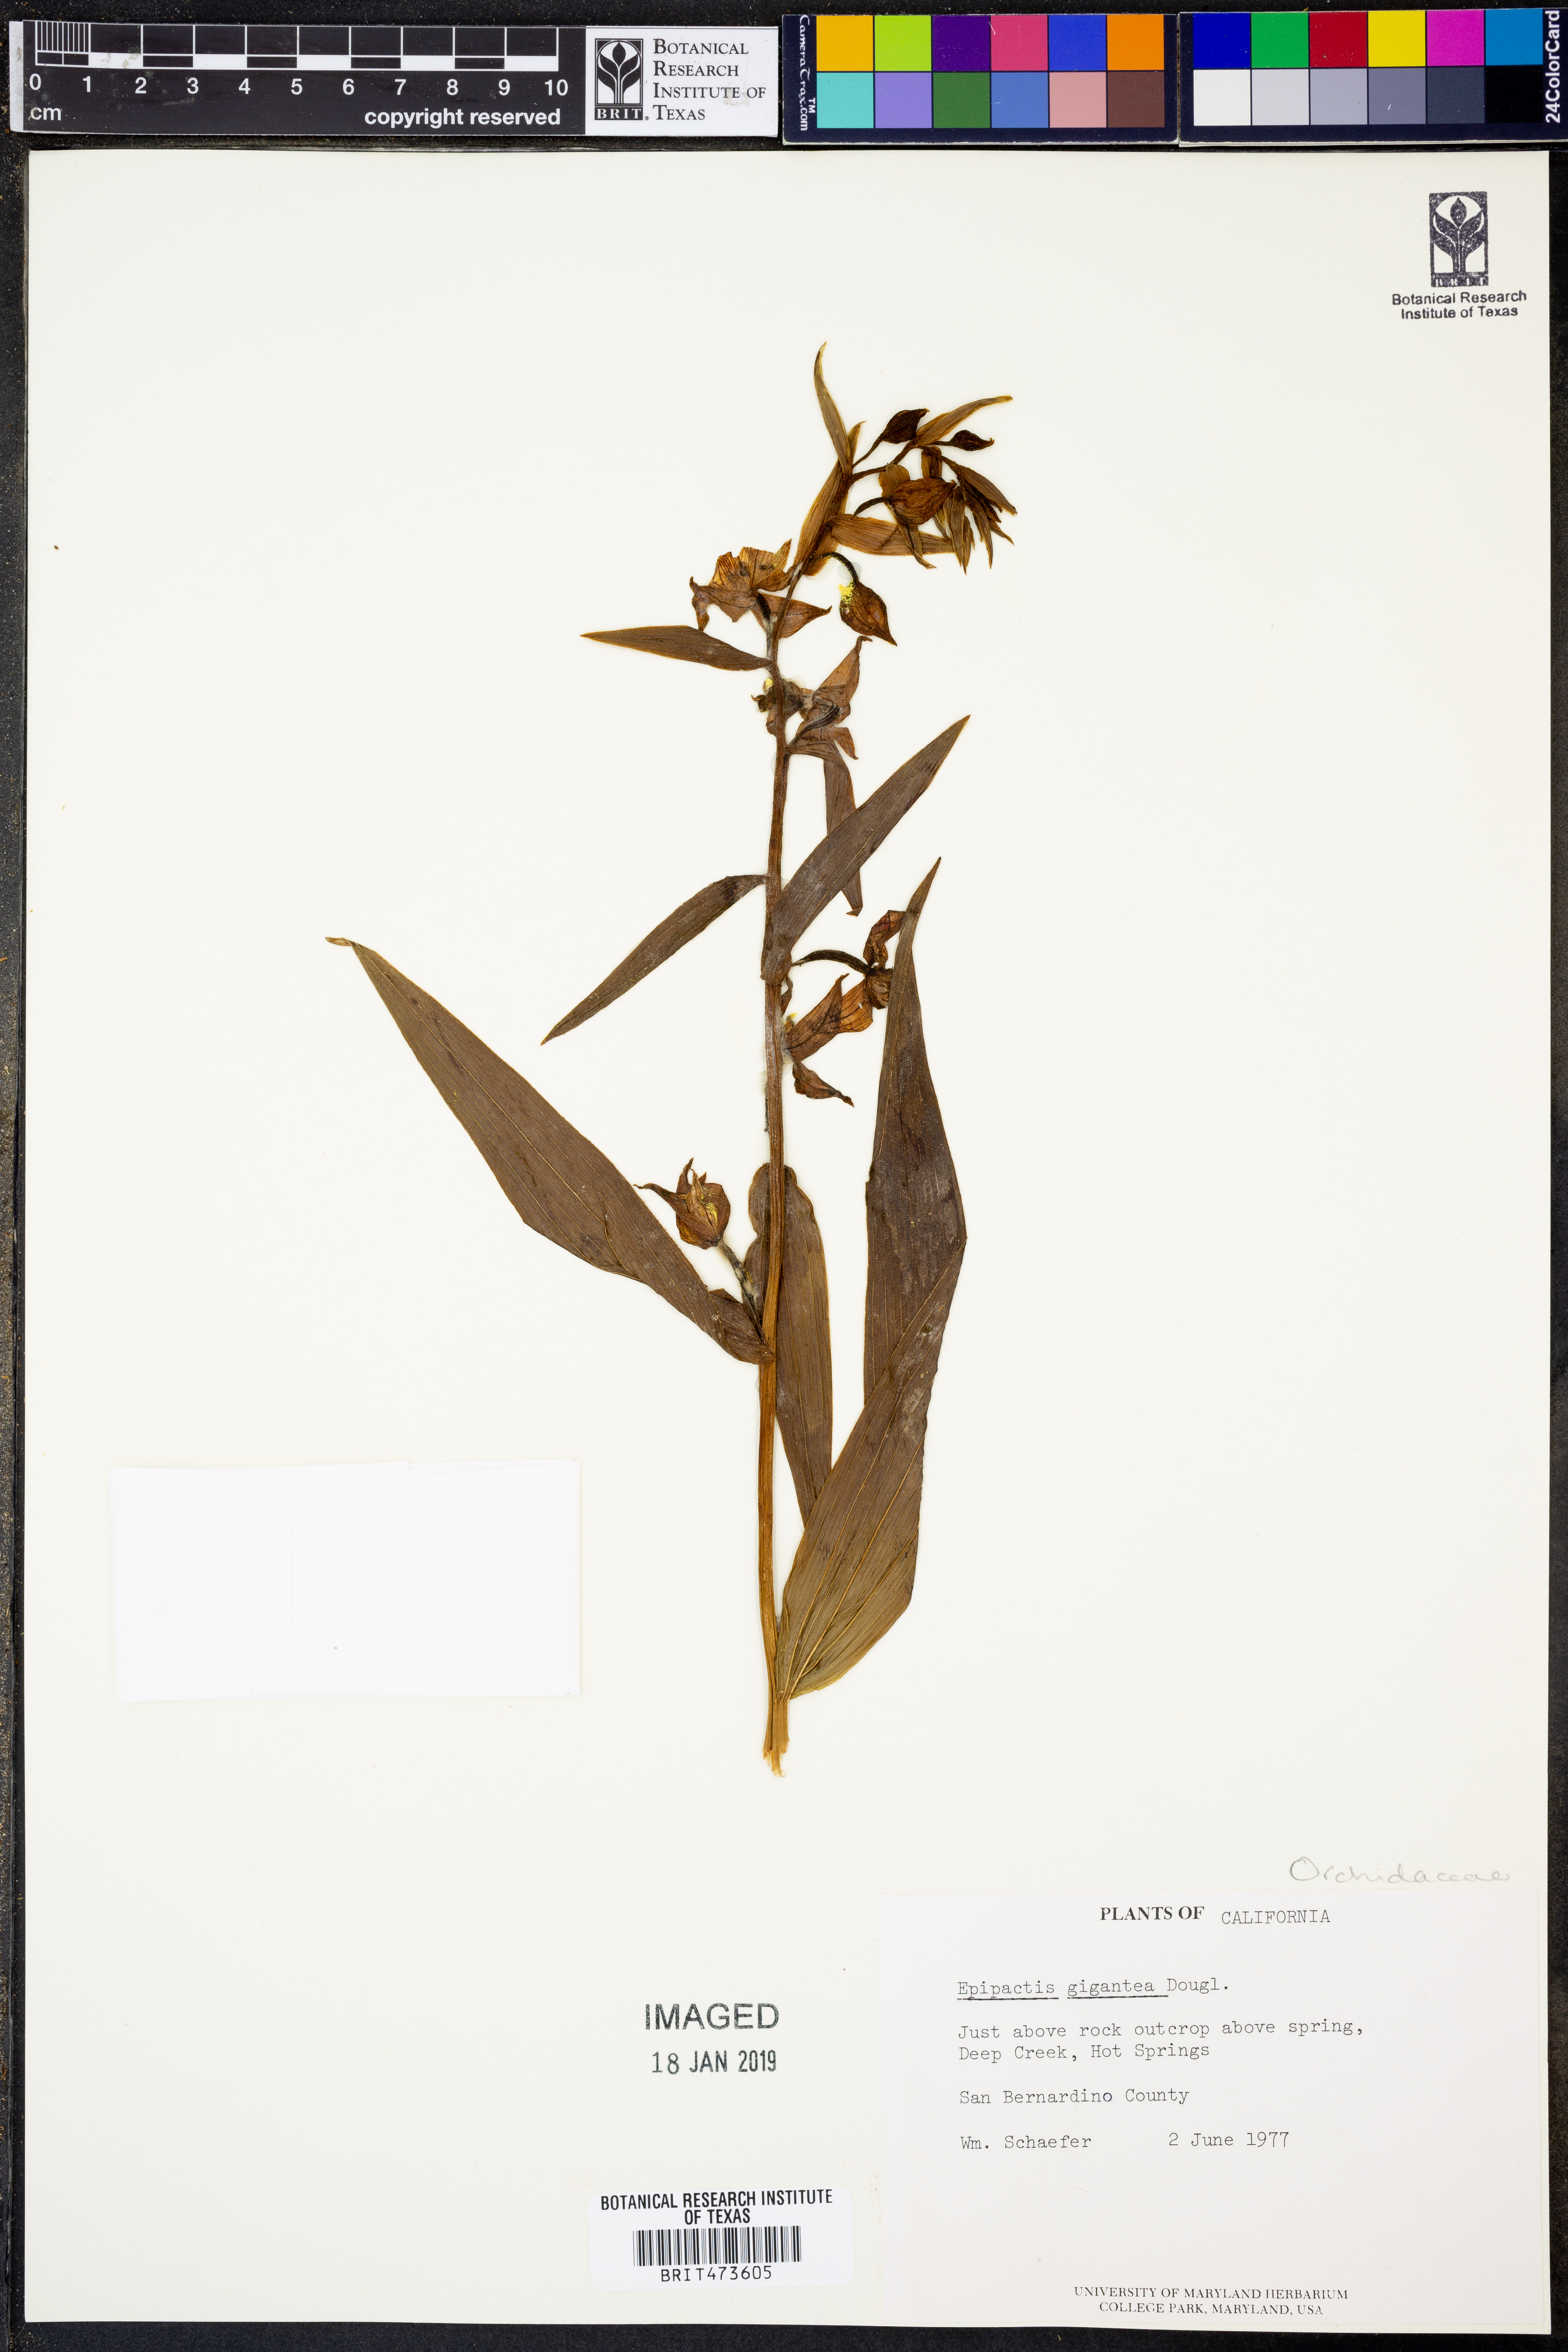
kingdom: Plantae
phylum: Tracheophyta
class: Liliopsida
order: Asparagales
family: Orchidaceae
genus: Epipactis
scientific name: Epipactis gigantea
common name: Chatterbox
